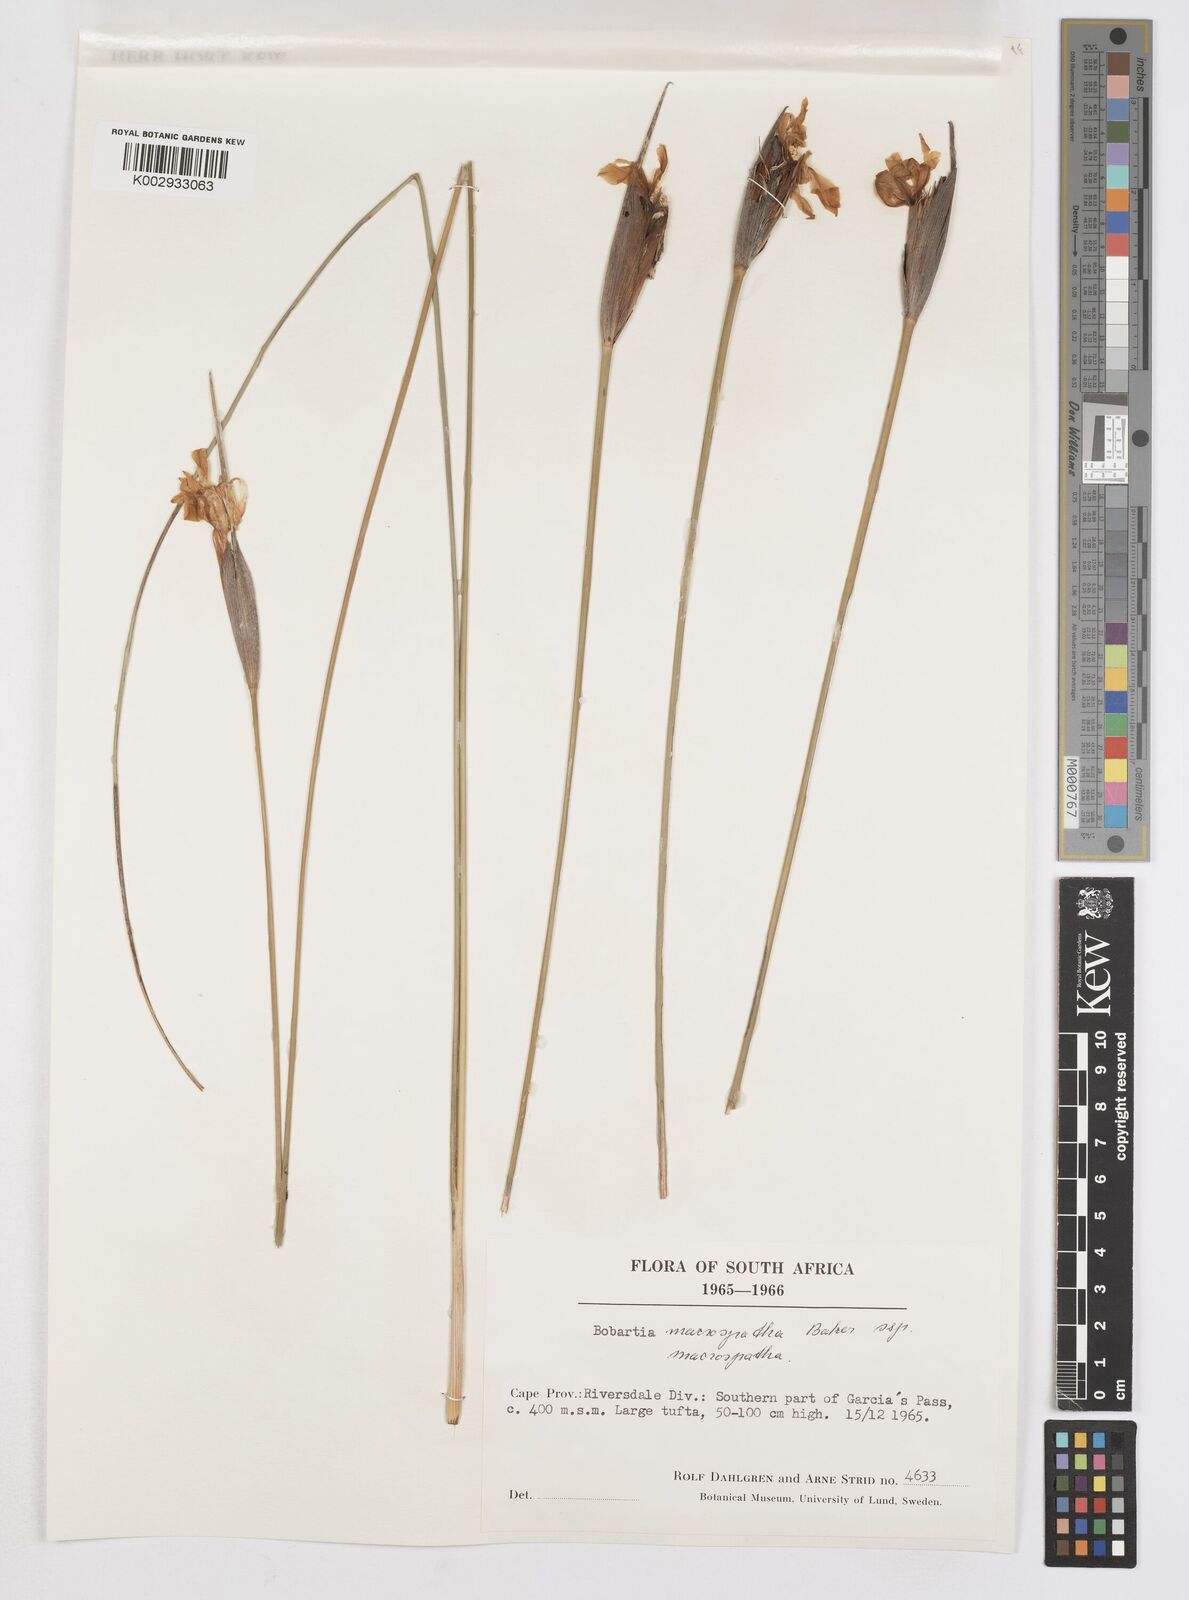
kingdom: Plantae
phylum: Tracheophyta
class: Liliopsida
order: Asparagales
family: Iridaceae
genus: Bobartia
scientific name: Bobartia macrospatha
